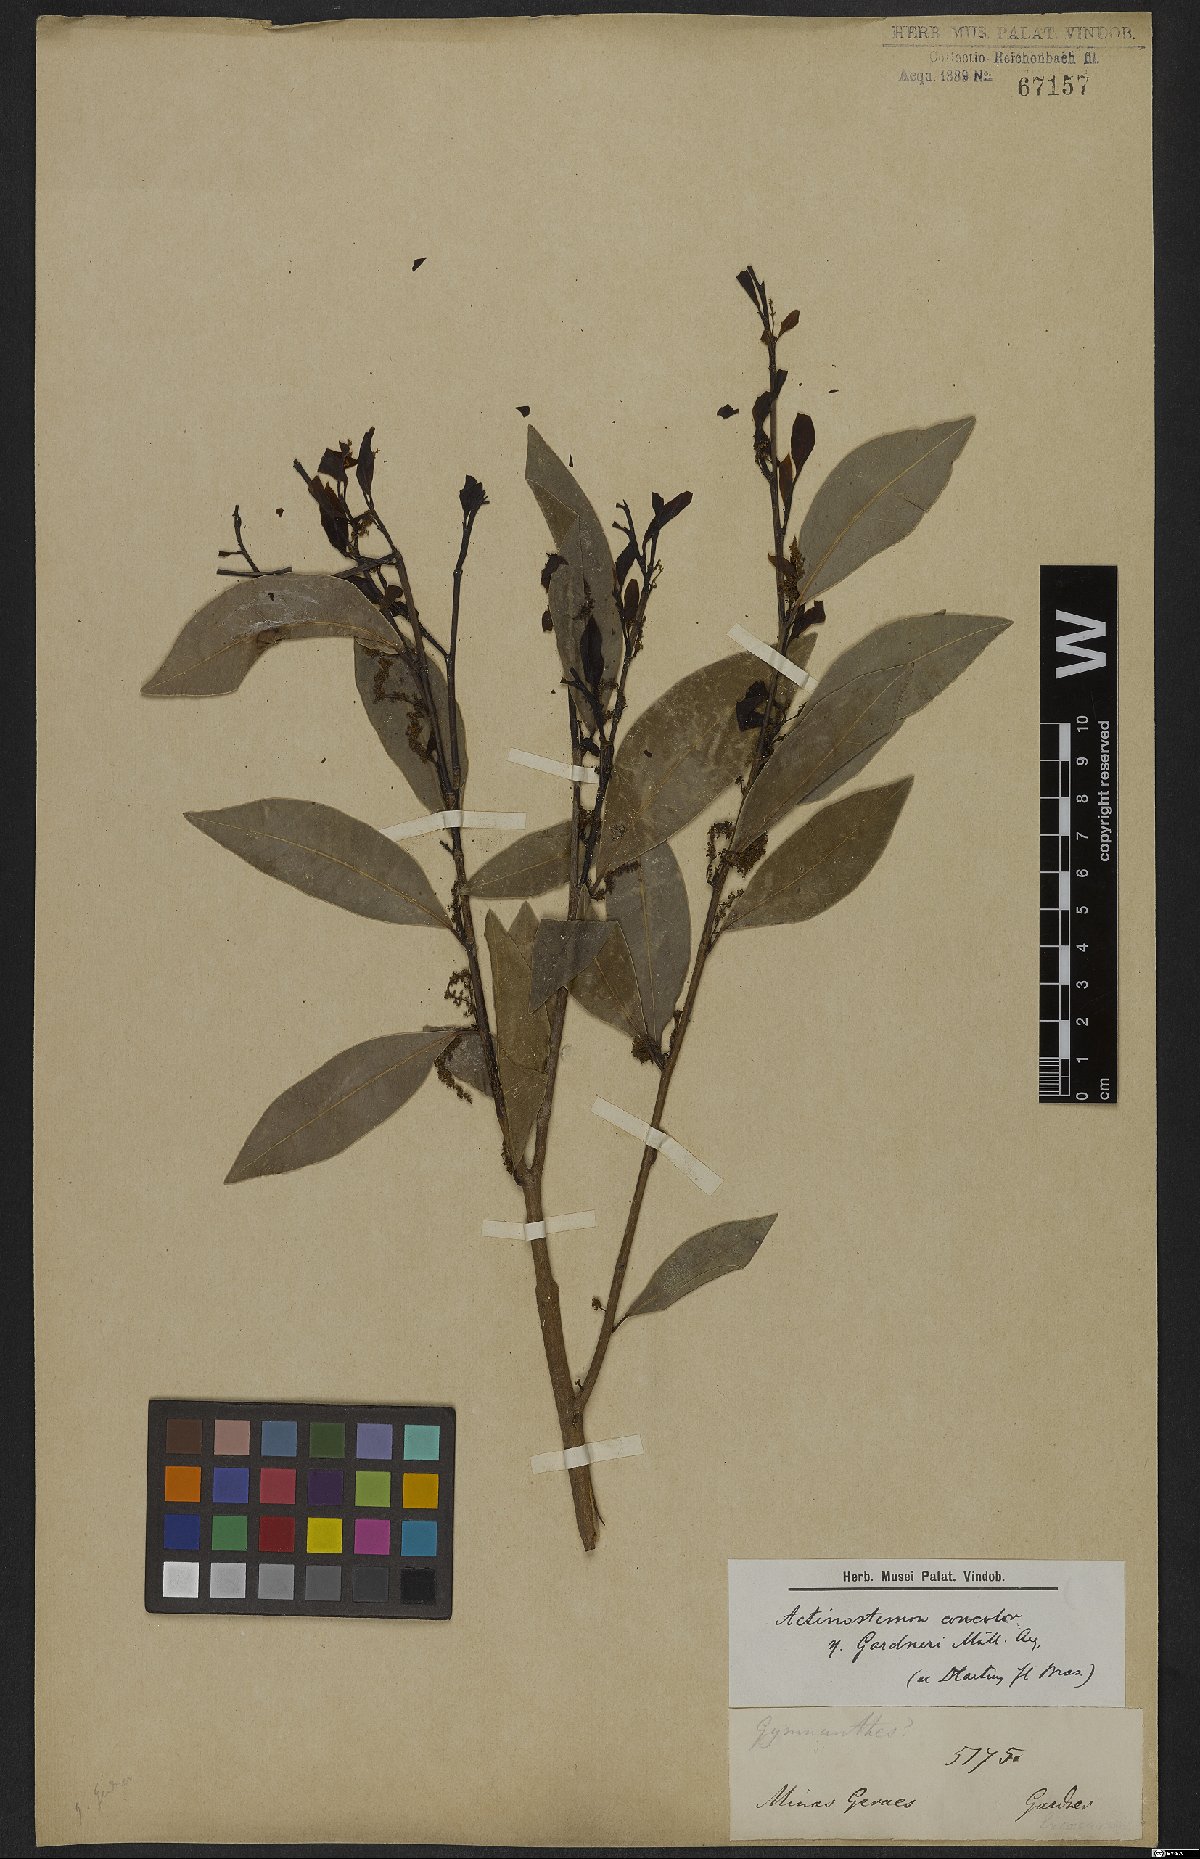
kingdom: Plantae
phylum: Tracheophyta
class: Magnoliopsida
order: Malpighiales
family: Euphorbiaceae
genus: Actinostemon
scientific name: Actinostemon concolor
